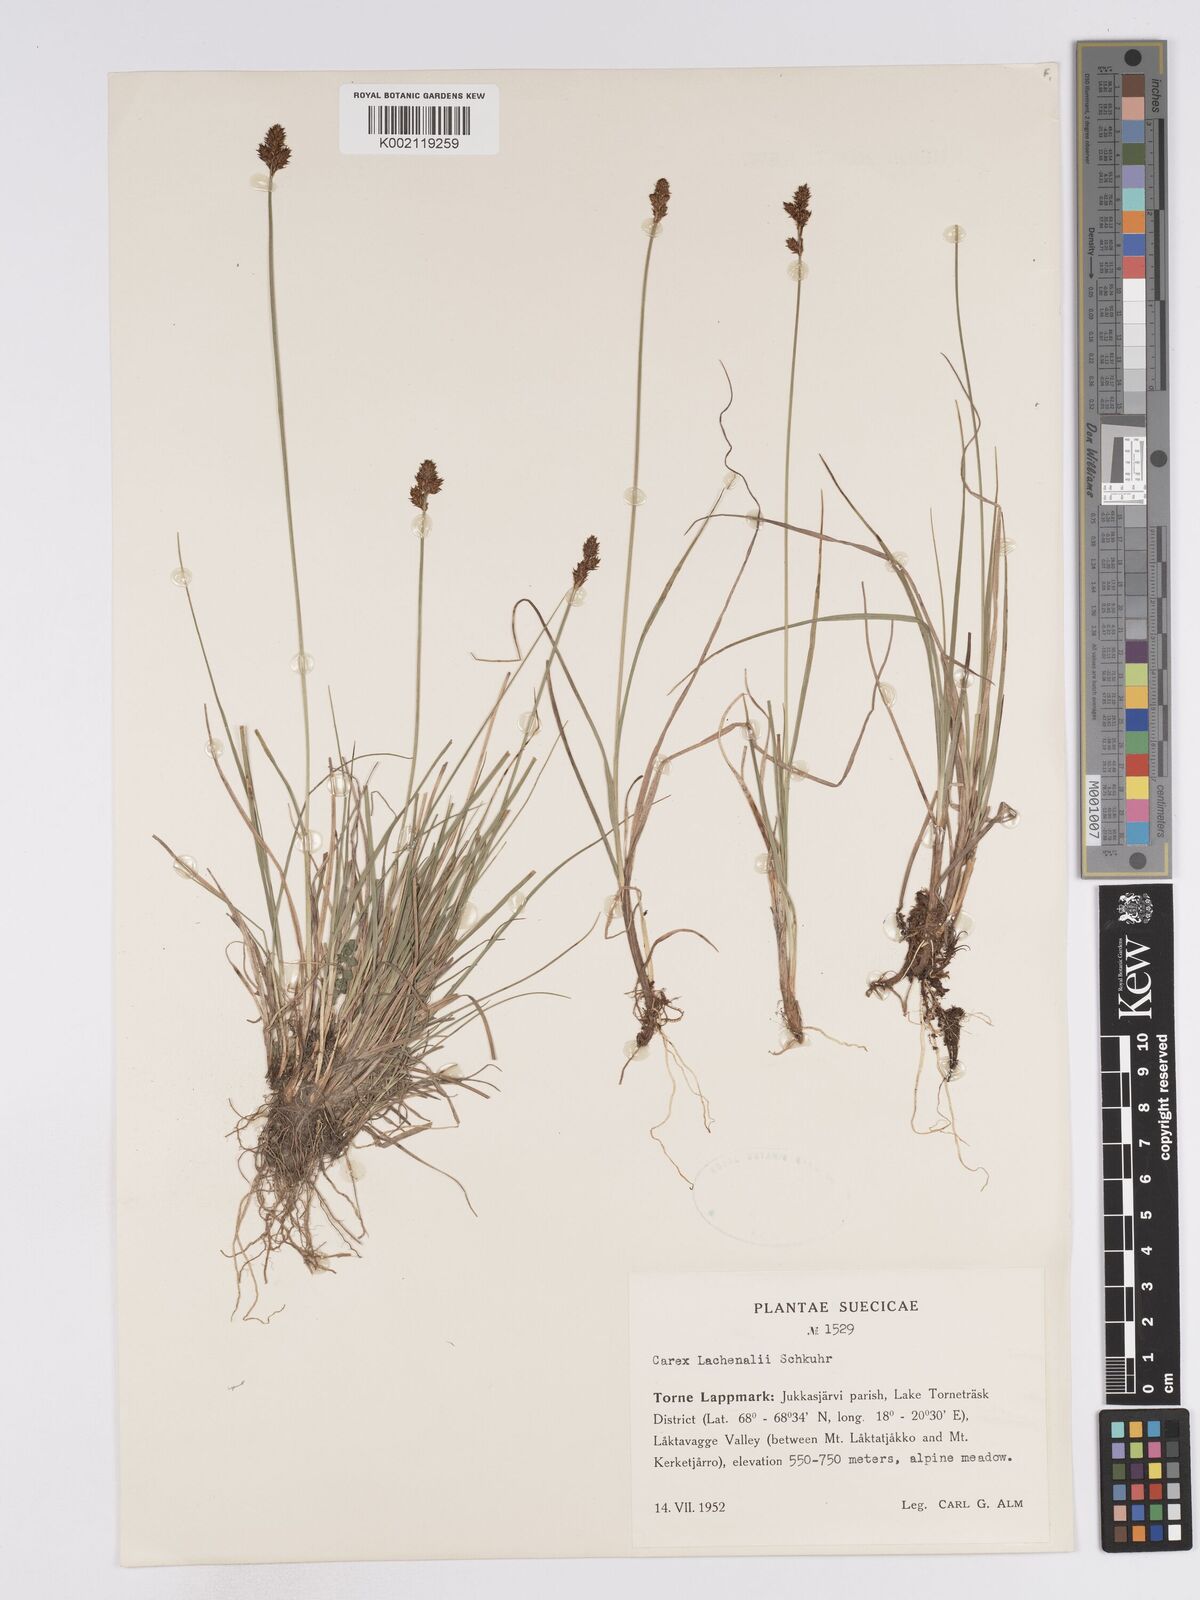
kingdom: Plantae
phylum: Tracheophyta
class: Liliopsida
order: Poales
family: Cyperaceae
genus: Carex
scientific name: Carex lachenalii
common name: Hare's-foot sedge
